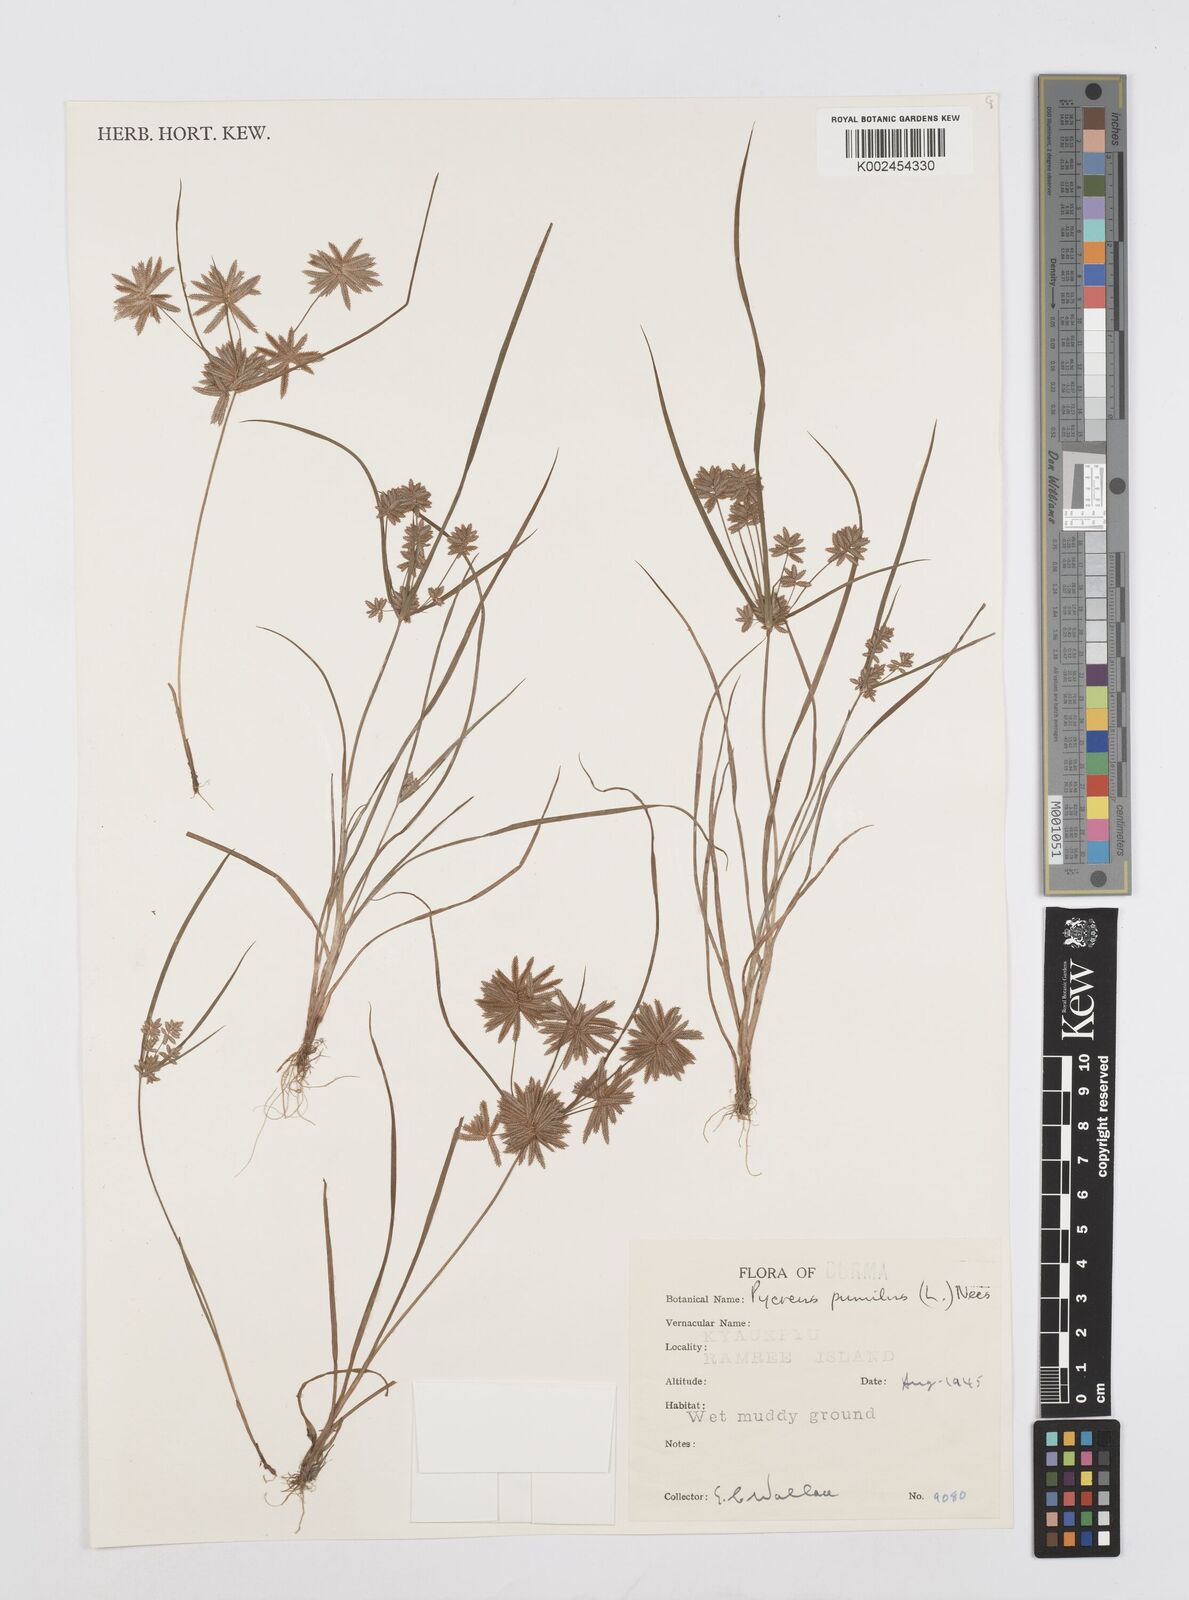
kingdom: Plantae
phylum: Tracheophyta
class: Liliopsida
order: Poales
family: Cyperaceae
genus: Cyperus
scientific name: Cyperus pumilus
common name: Low flatsedge
